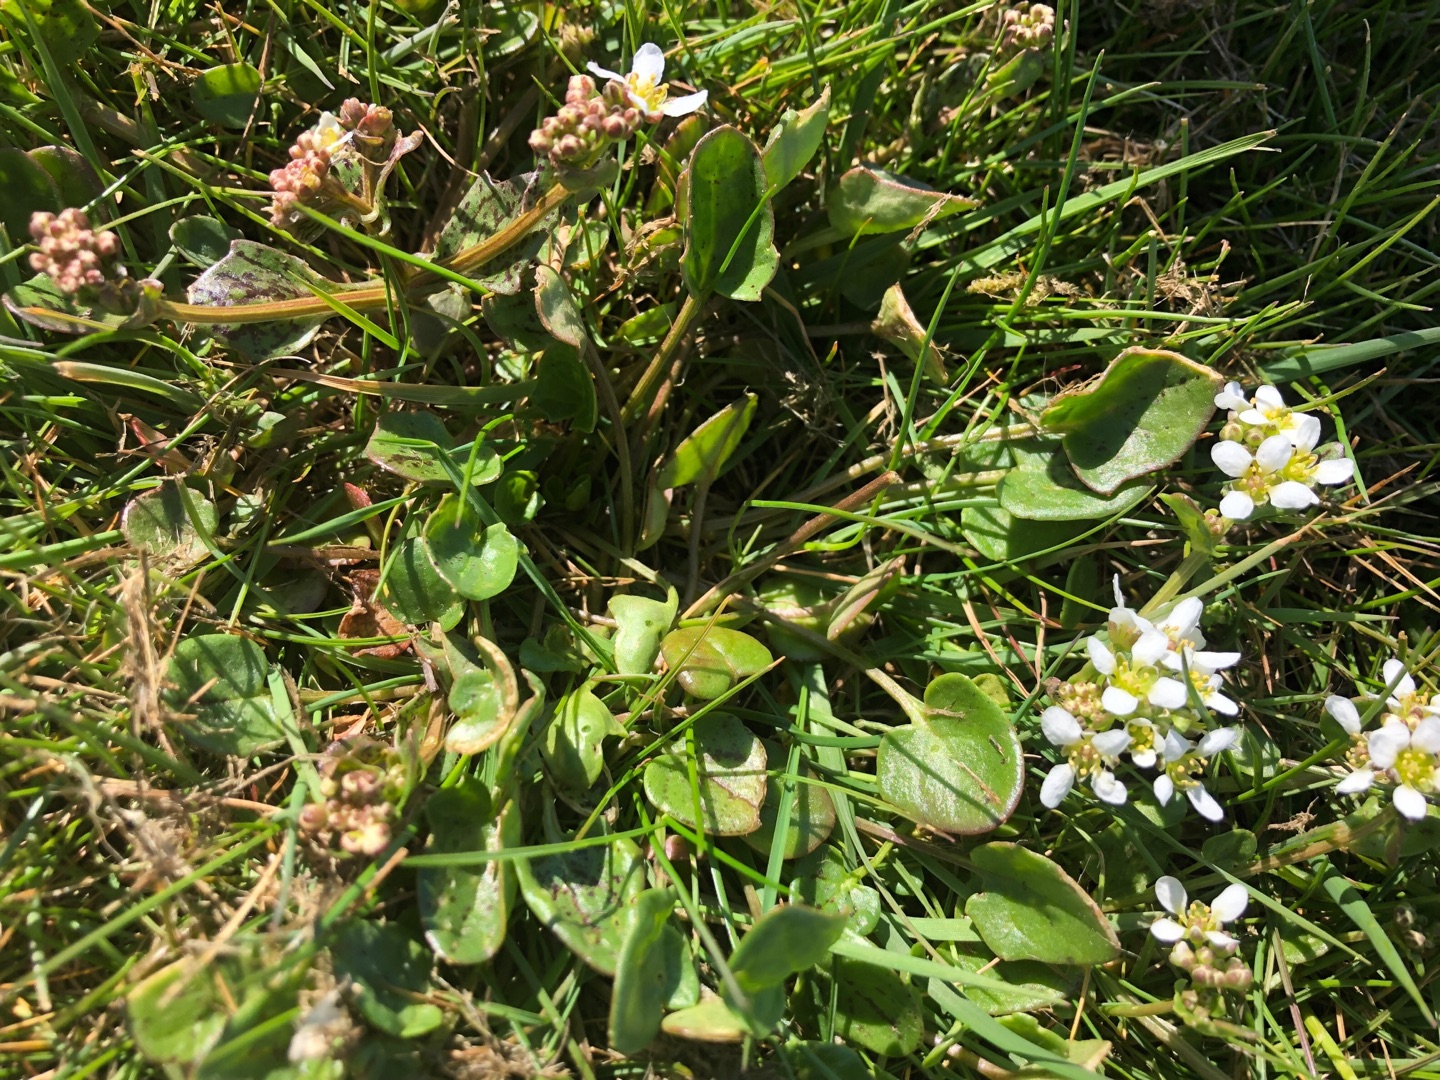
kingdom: Plantae
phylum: Tracheophyta
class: Magnoliopsida
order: Brassicales
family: Brassicaceae
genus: Cochlearia
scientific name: Cochlearia officinalis
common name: Læge-kokleare (underart)
